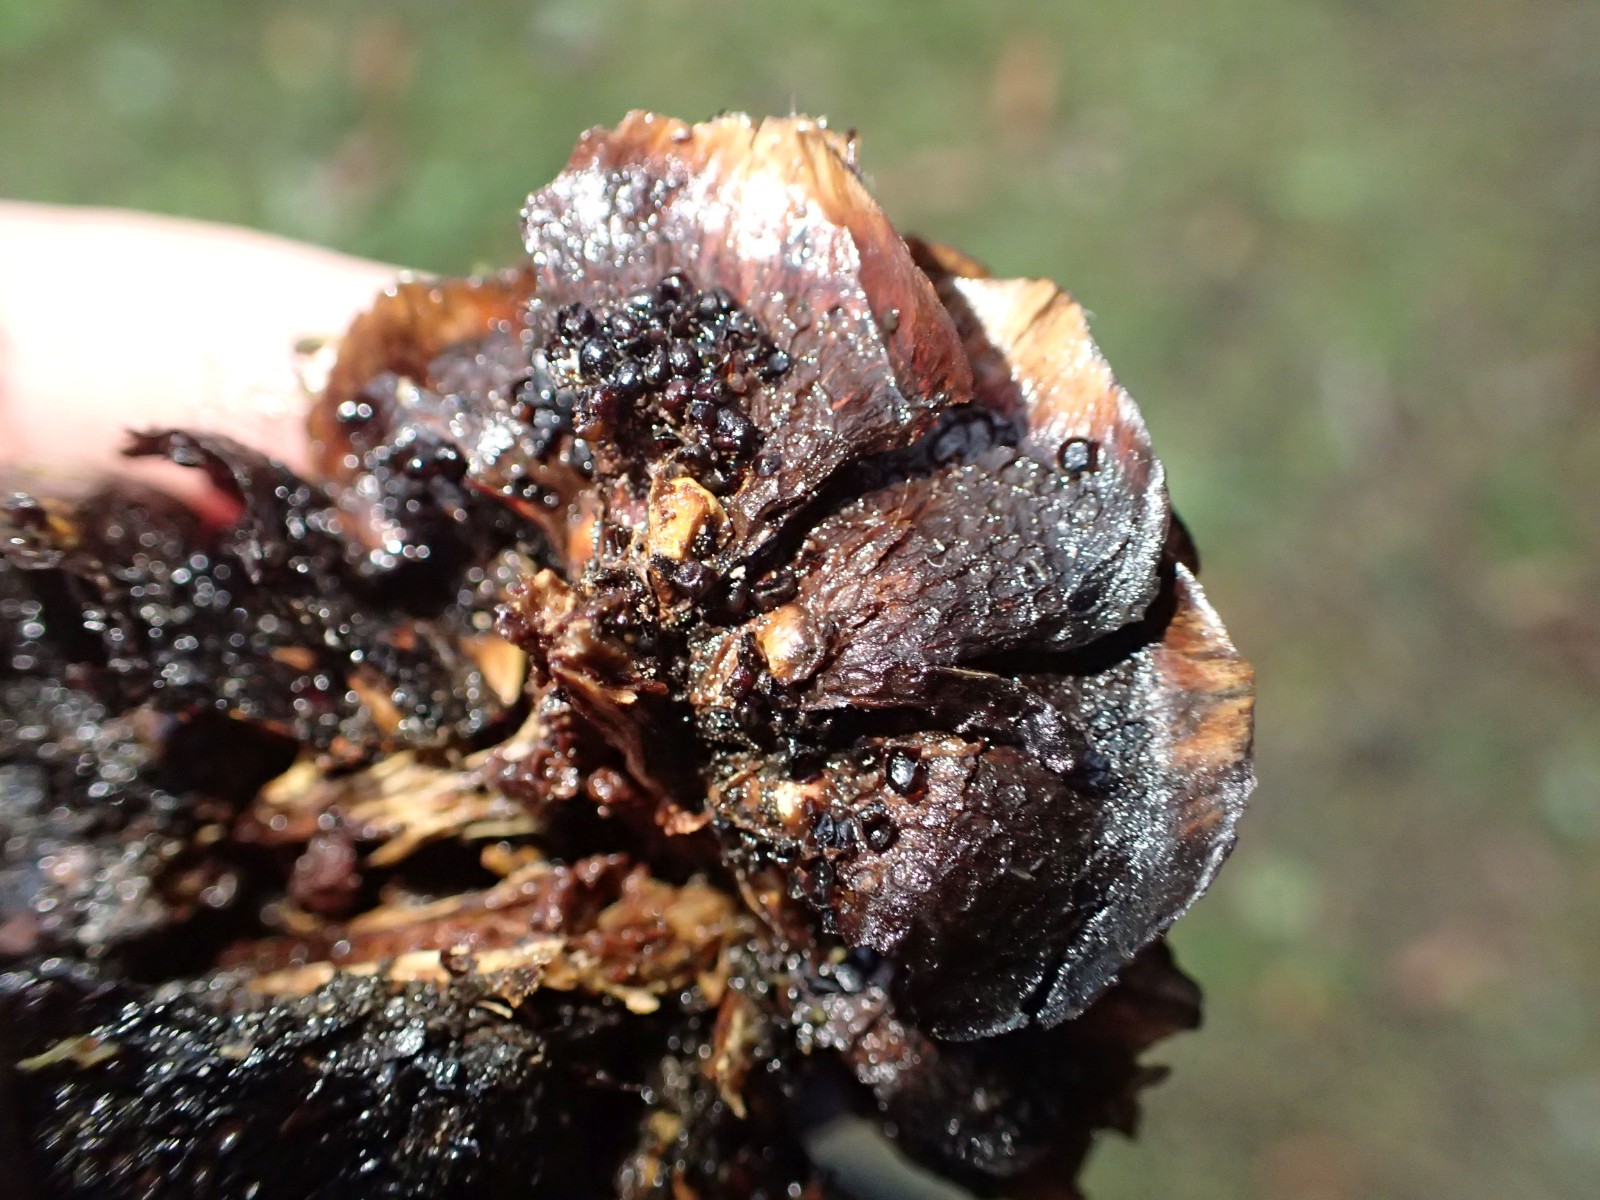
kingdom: Fungi
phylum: Basidiomycota
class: Pucciniomycetes
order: Pucciniales
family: Pucciniastraceae
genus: Thekopsora
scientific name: Thekopsora areolata
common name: grankogle-nålerust
